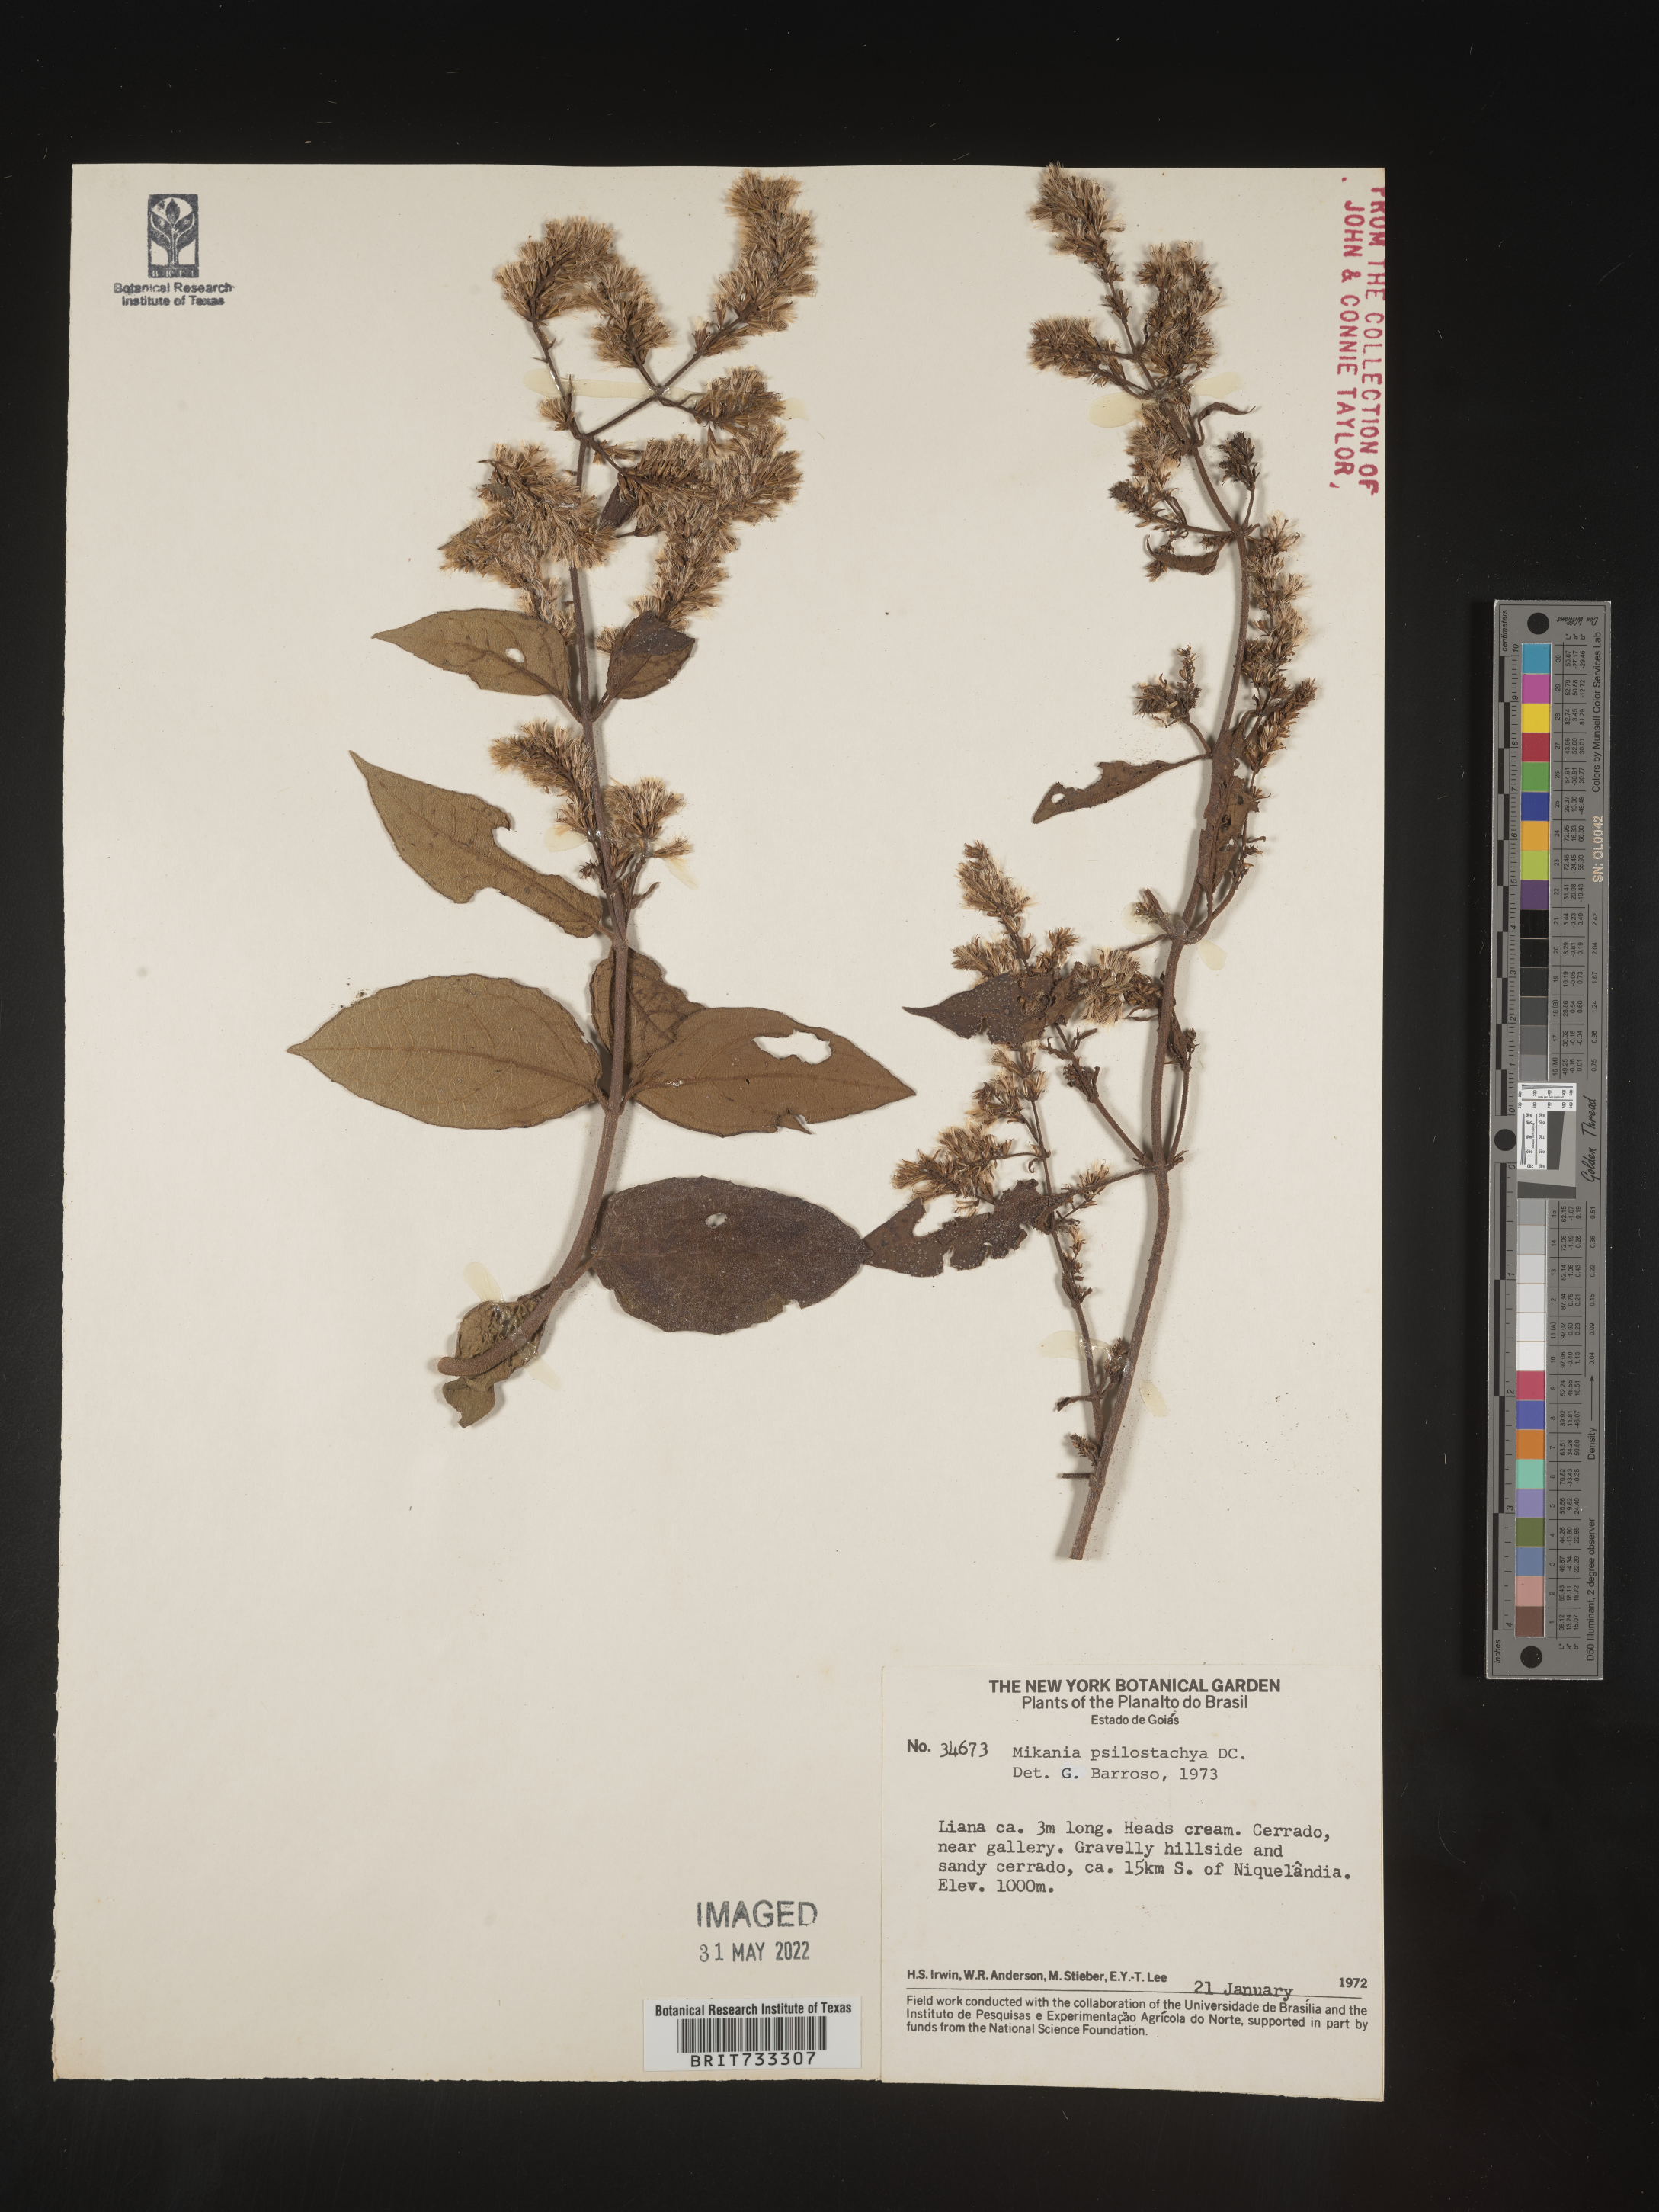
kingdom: Plantae
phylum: Tracheophyta
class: Magnoliopsida
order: Asterales
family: Asteraceae
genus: Mikania
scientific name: Mikania
